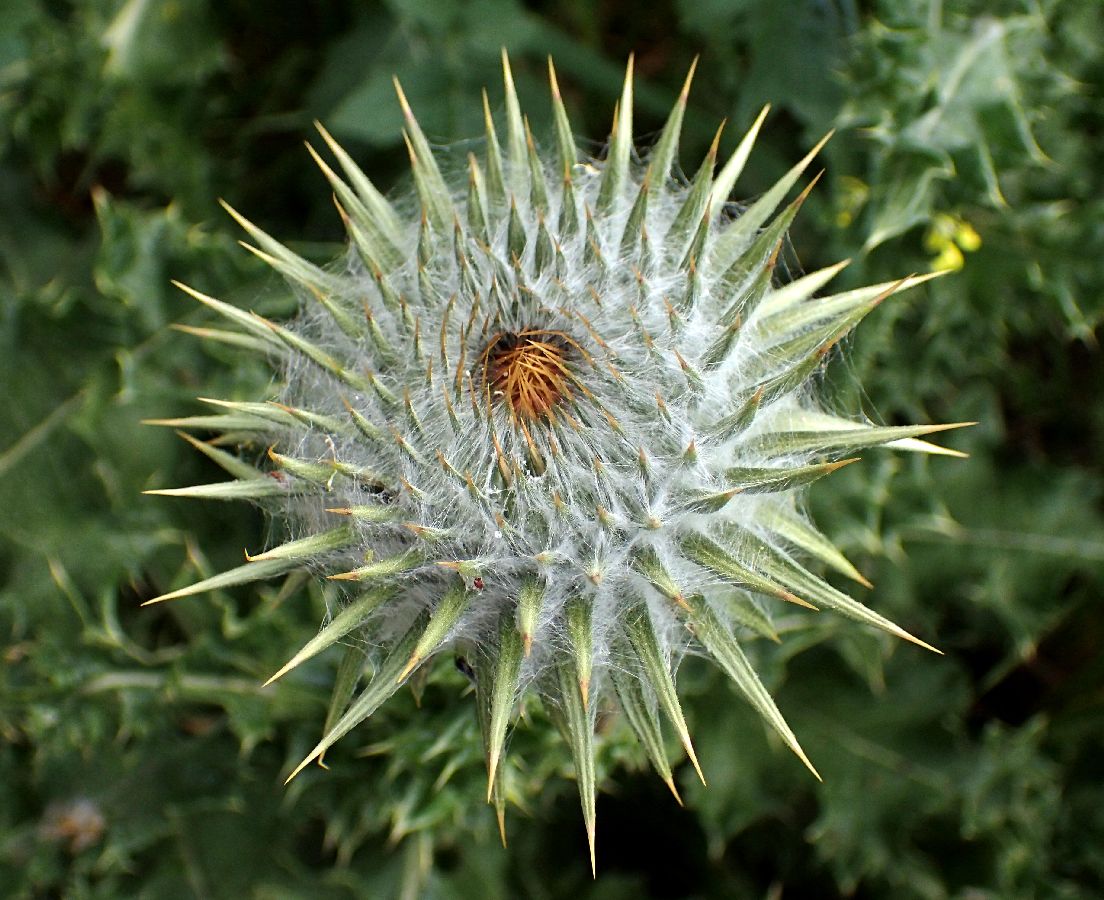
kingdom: Plantae
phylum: Tracheophyta
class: Magnoliopsida
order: Asterales
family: Asteraceae
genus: Onopordum
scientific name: Onopordum tauricum
